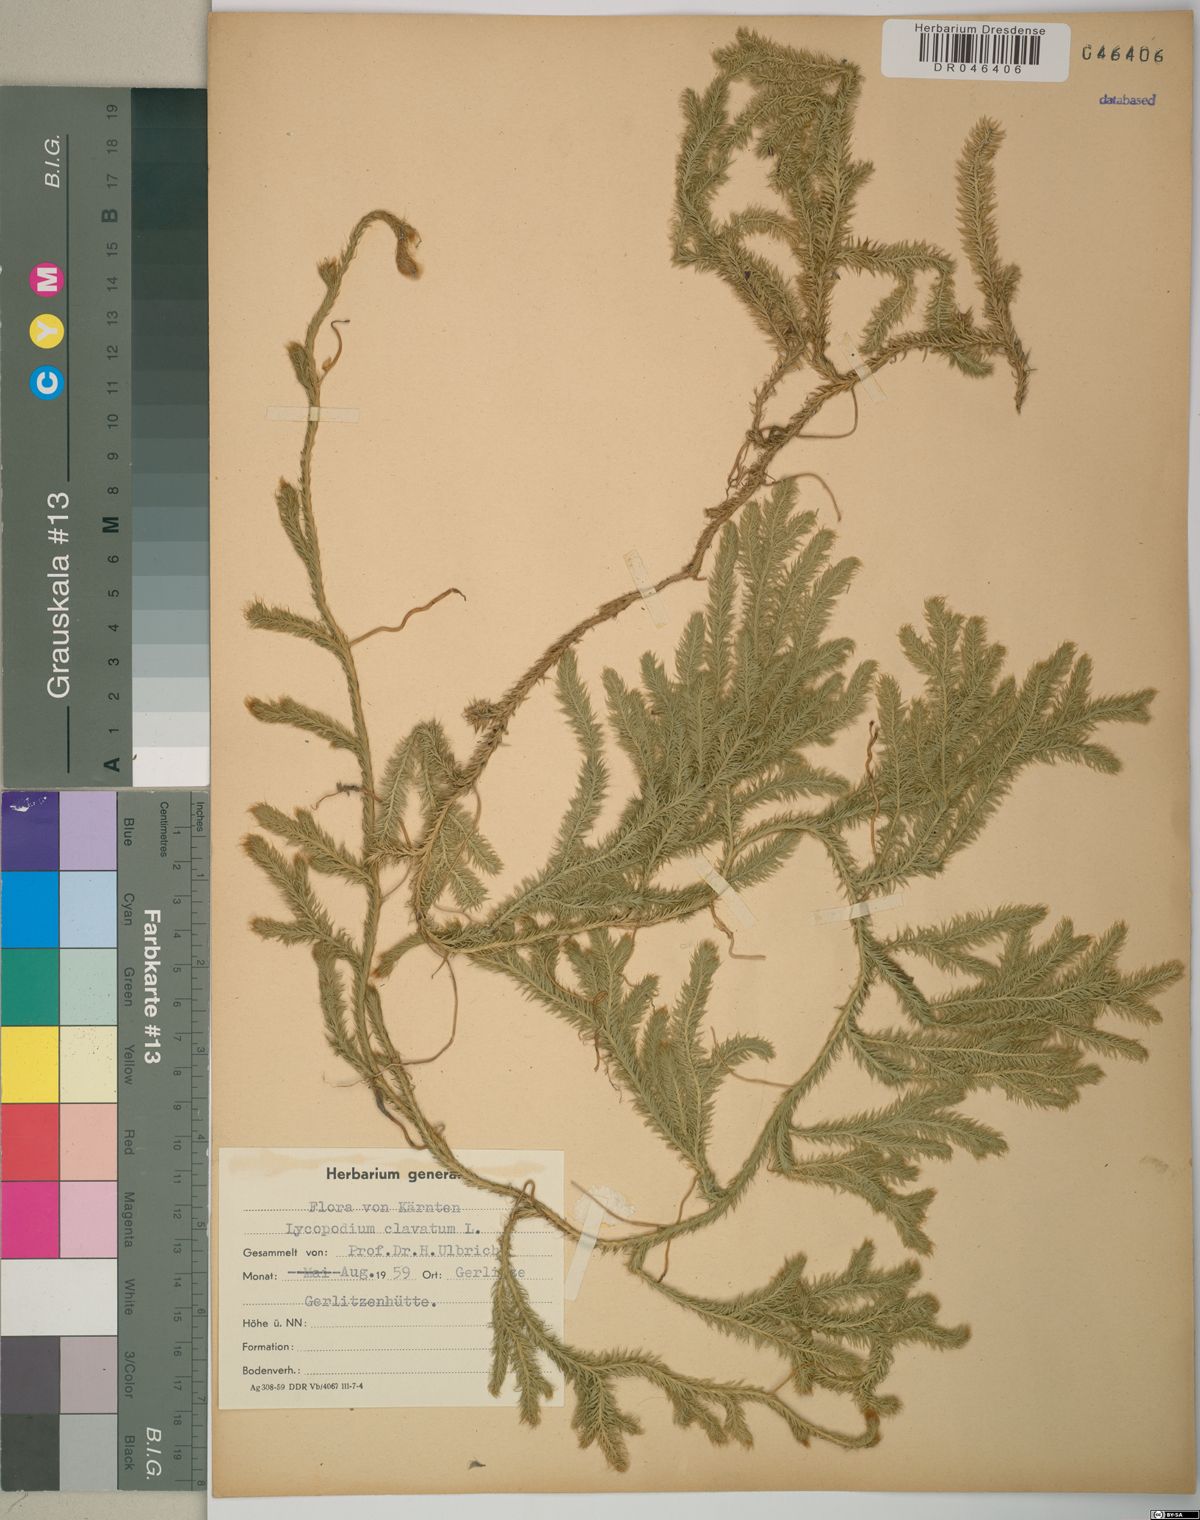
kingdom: Plantae
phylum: Tracheophyta
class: Lycopodiopsida
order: Lycopodiales
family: Lycopodiaceae
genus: Lycopodium
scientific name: Lycopodium clavatum
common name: Stag's-horn clubmoss
